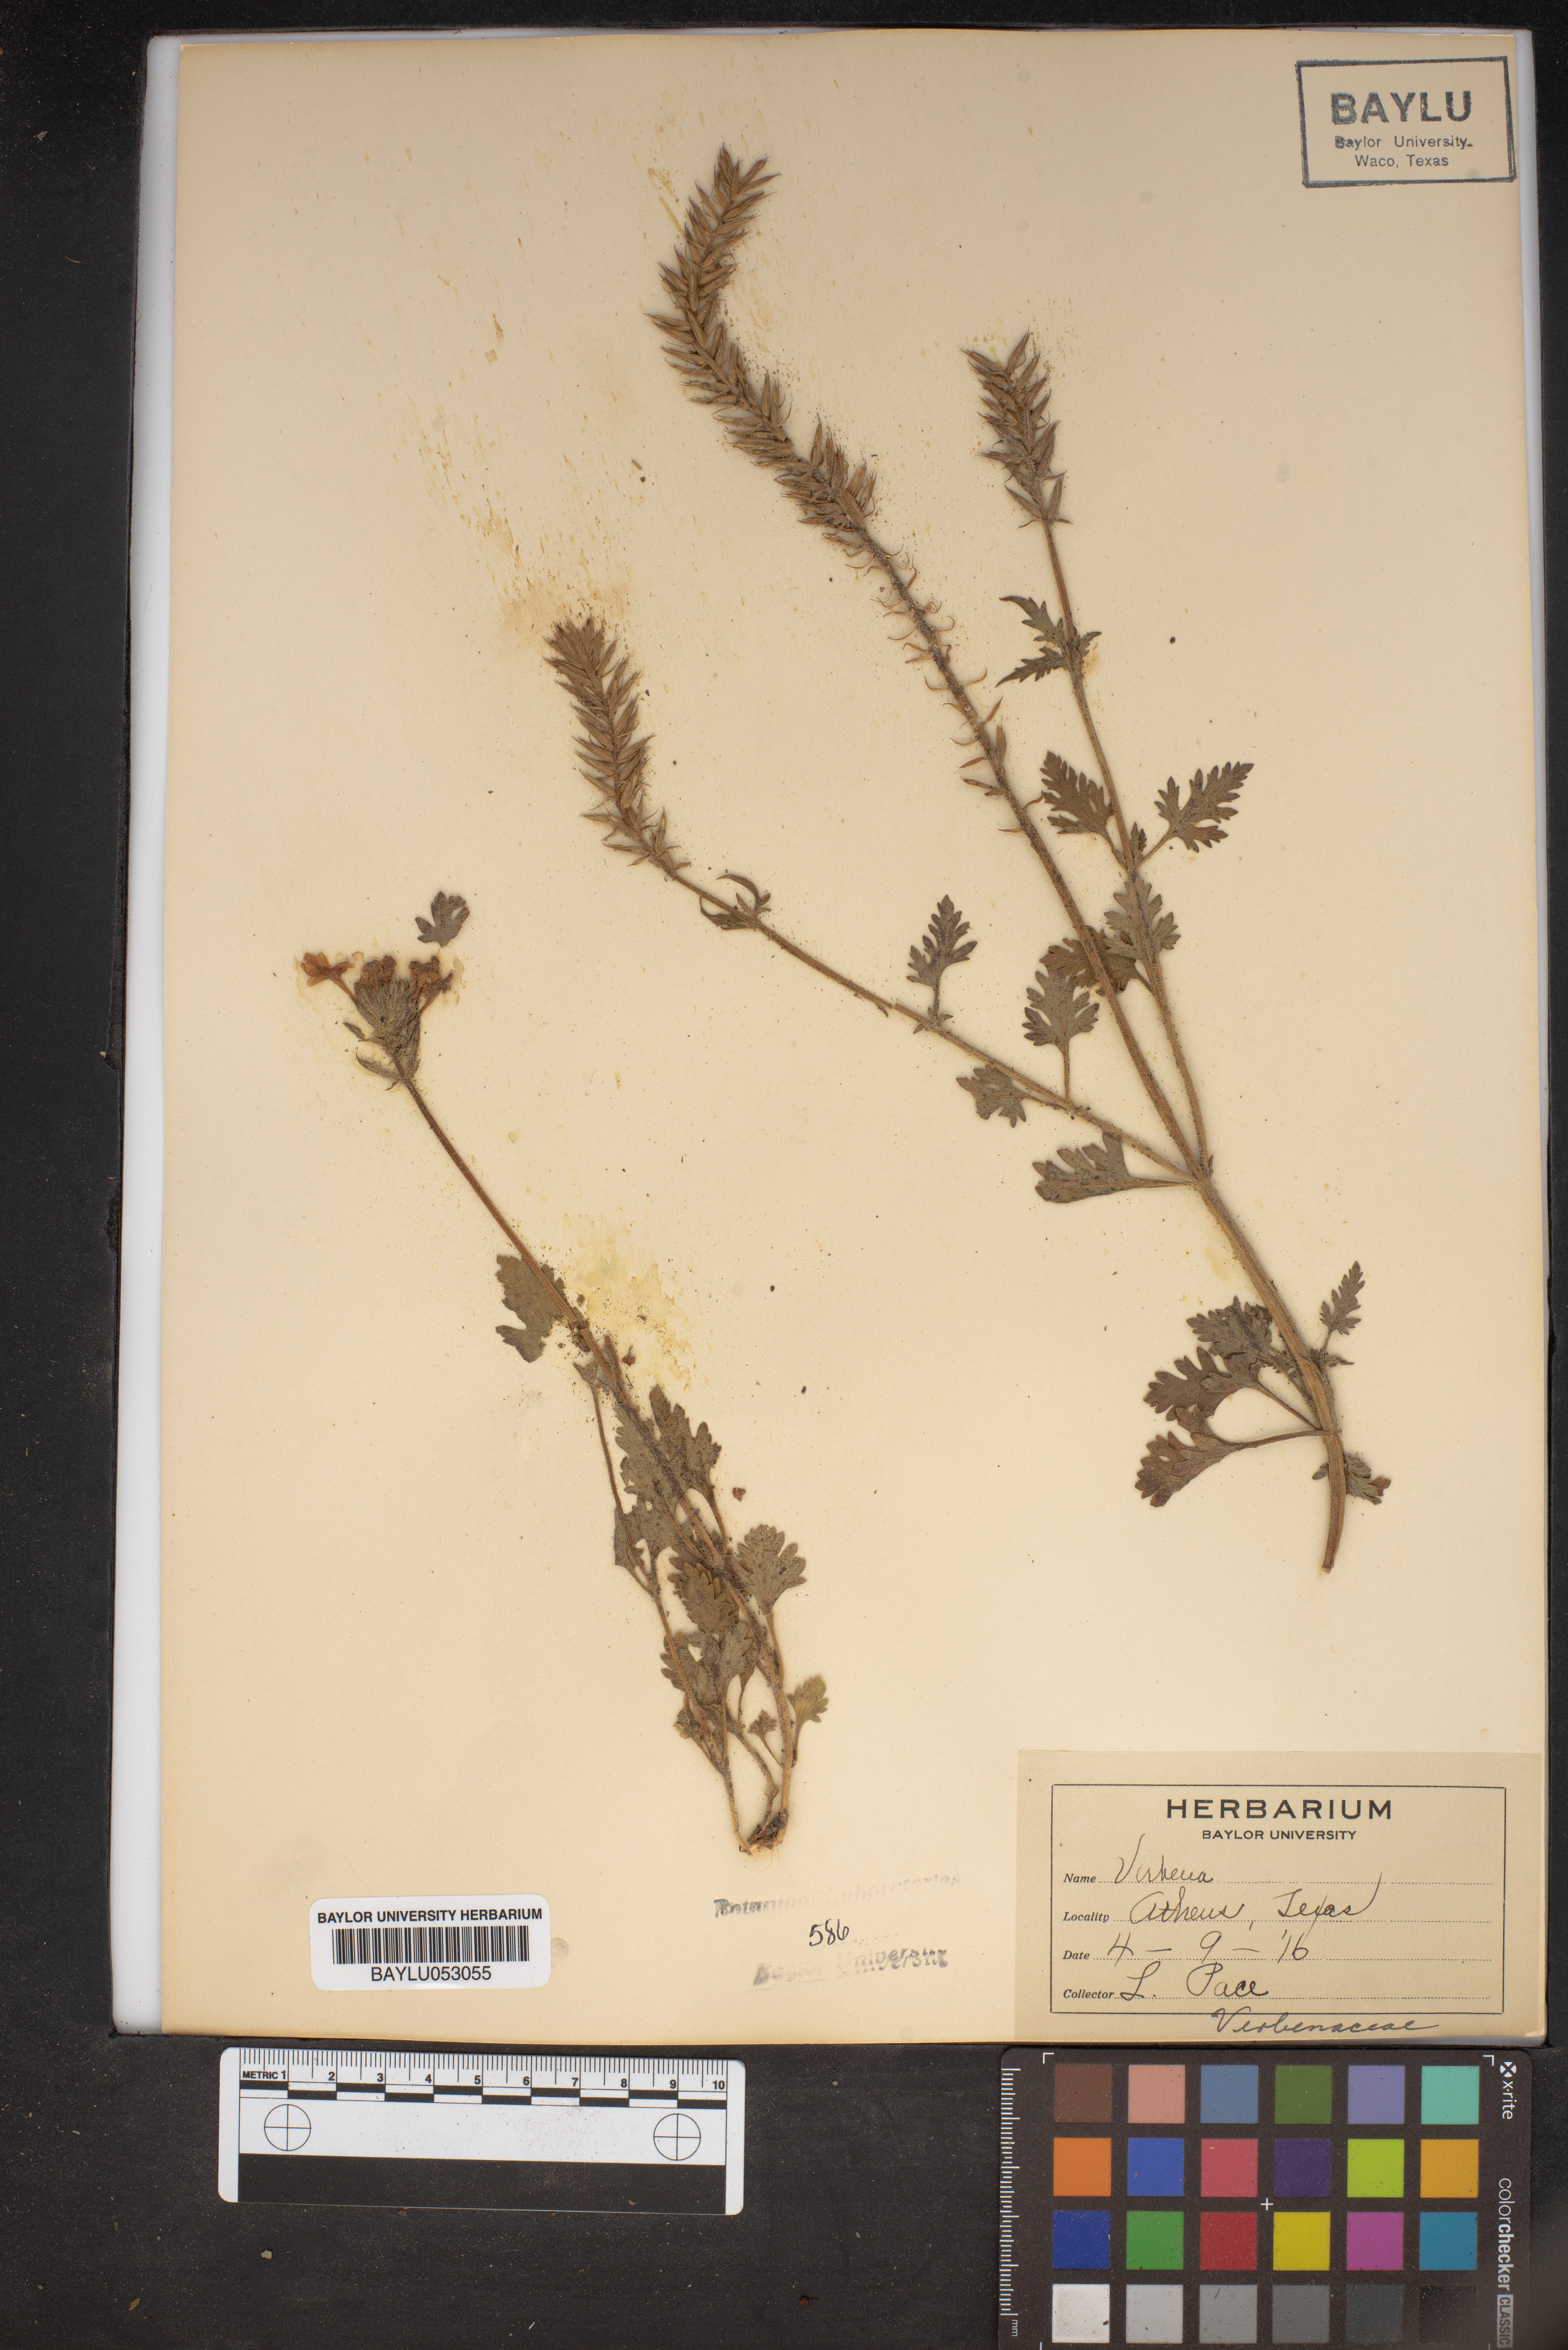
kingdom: Plantae
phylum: Tracheophyta
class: Magnoliopsida
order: Lamiales
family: Verbenaceae
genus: Verbena
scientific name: Verbena
